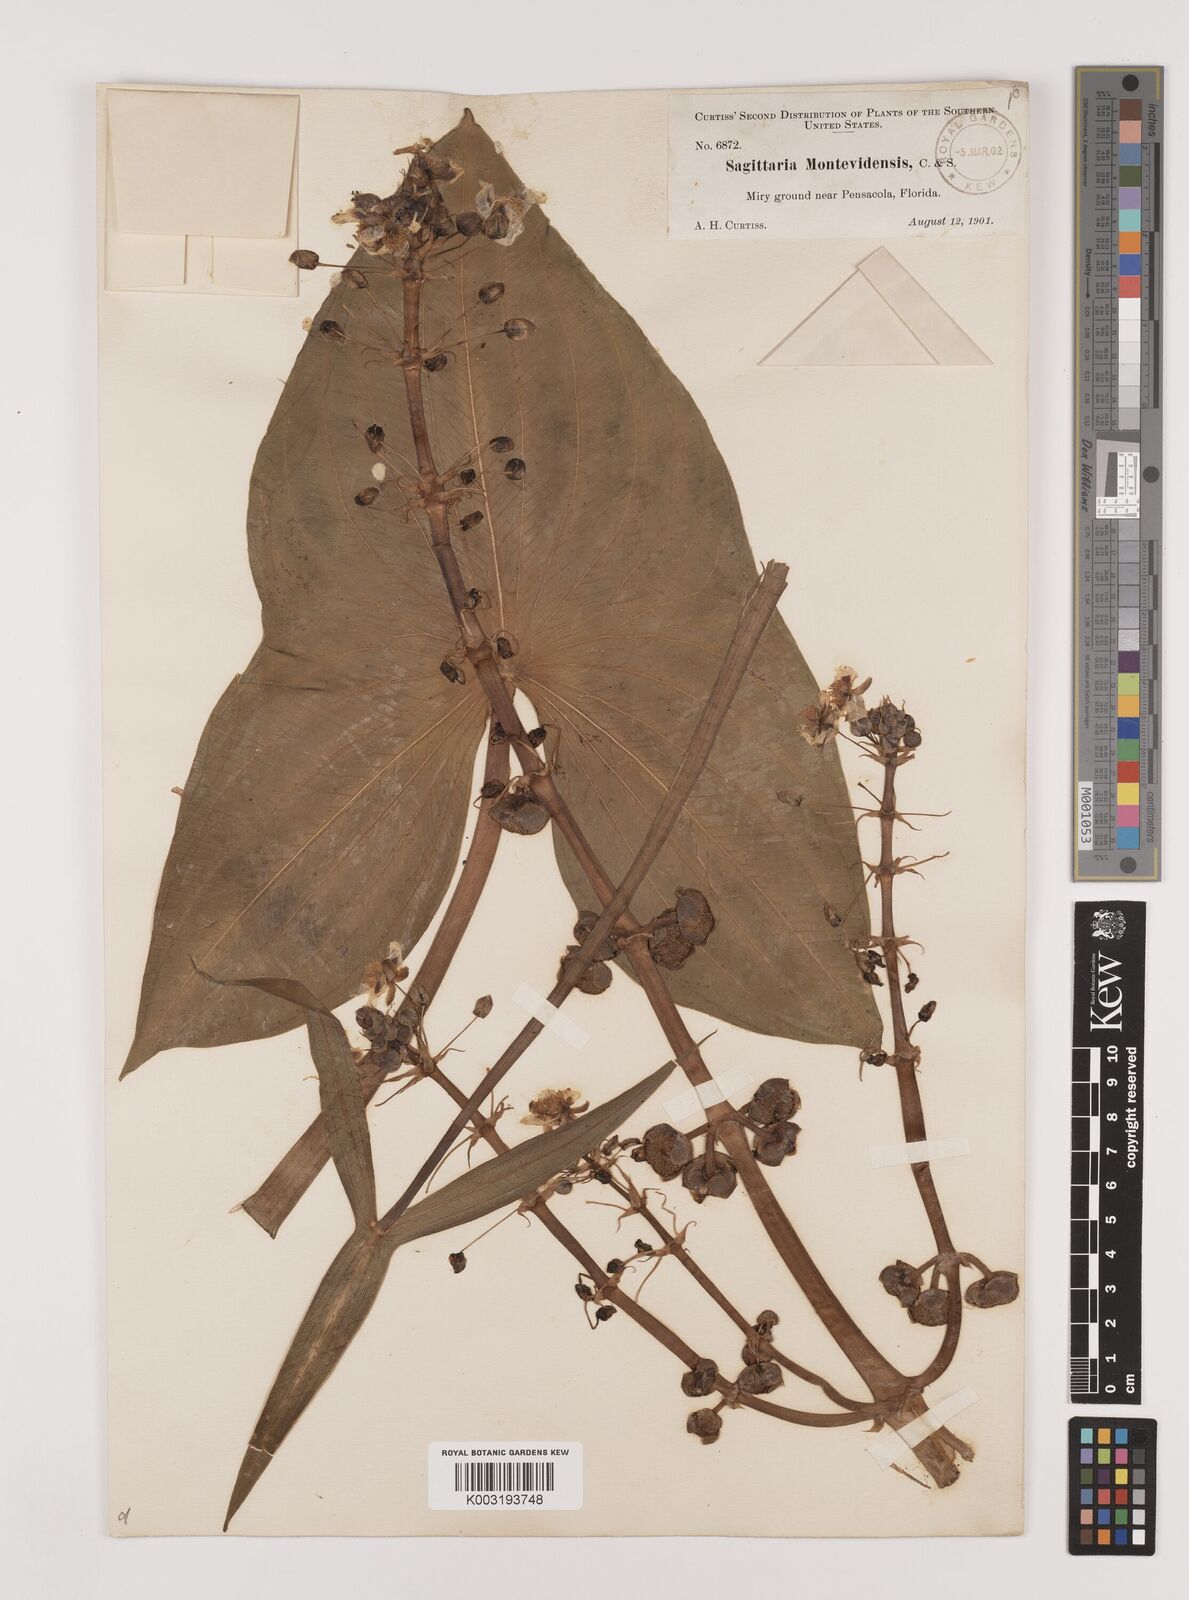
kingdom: Plantae
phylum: Tracheophyta
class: Liliopsida
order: Alismatales
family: Alismataceae
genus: Sagittaria
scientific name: Sagittaria montevidensis
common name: Giant arrowhead
